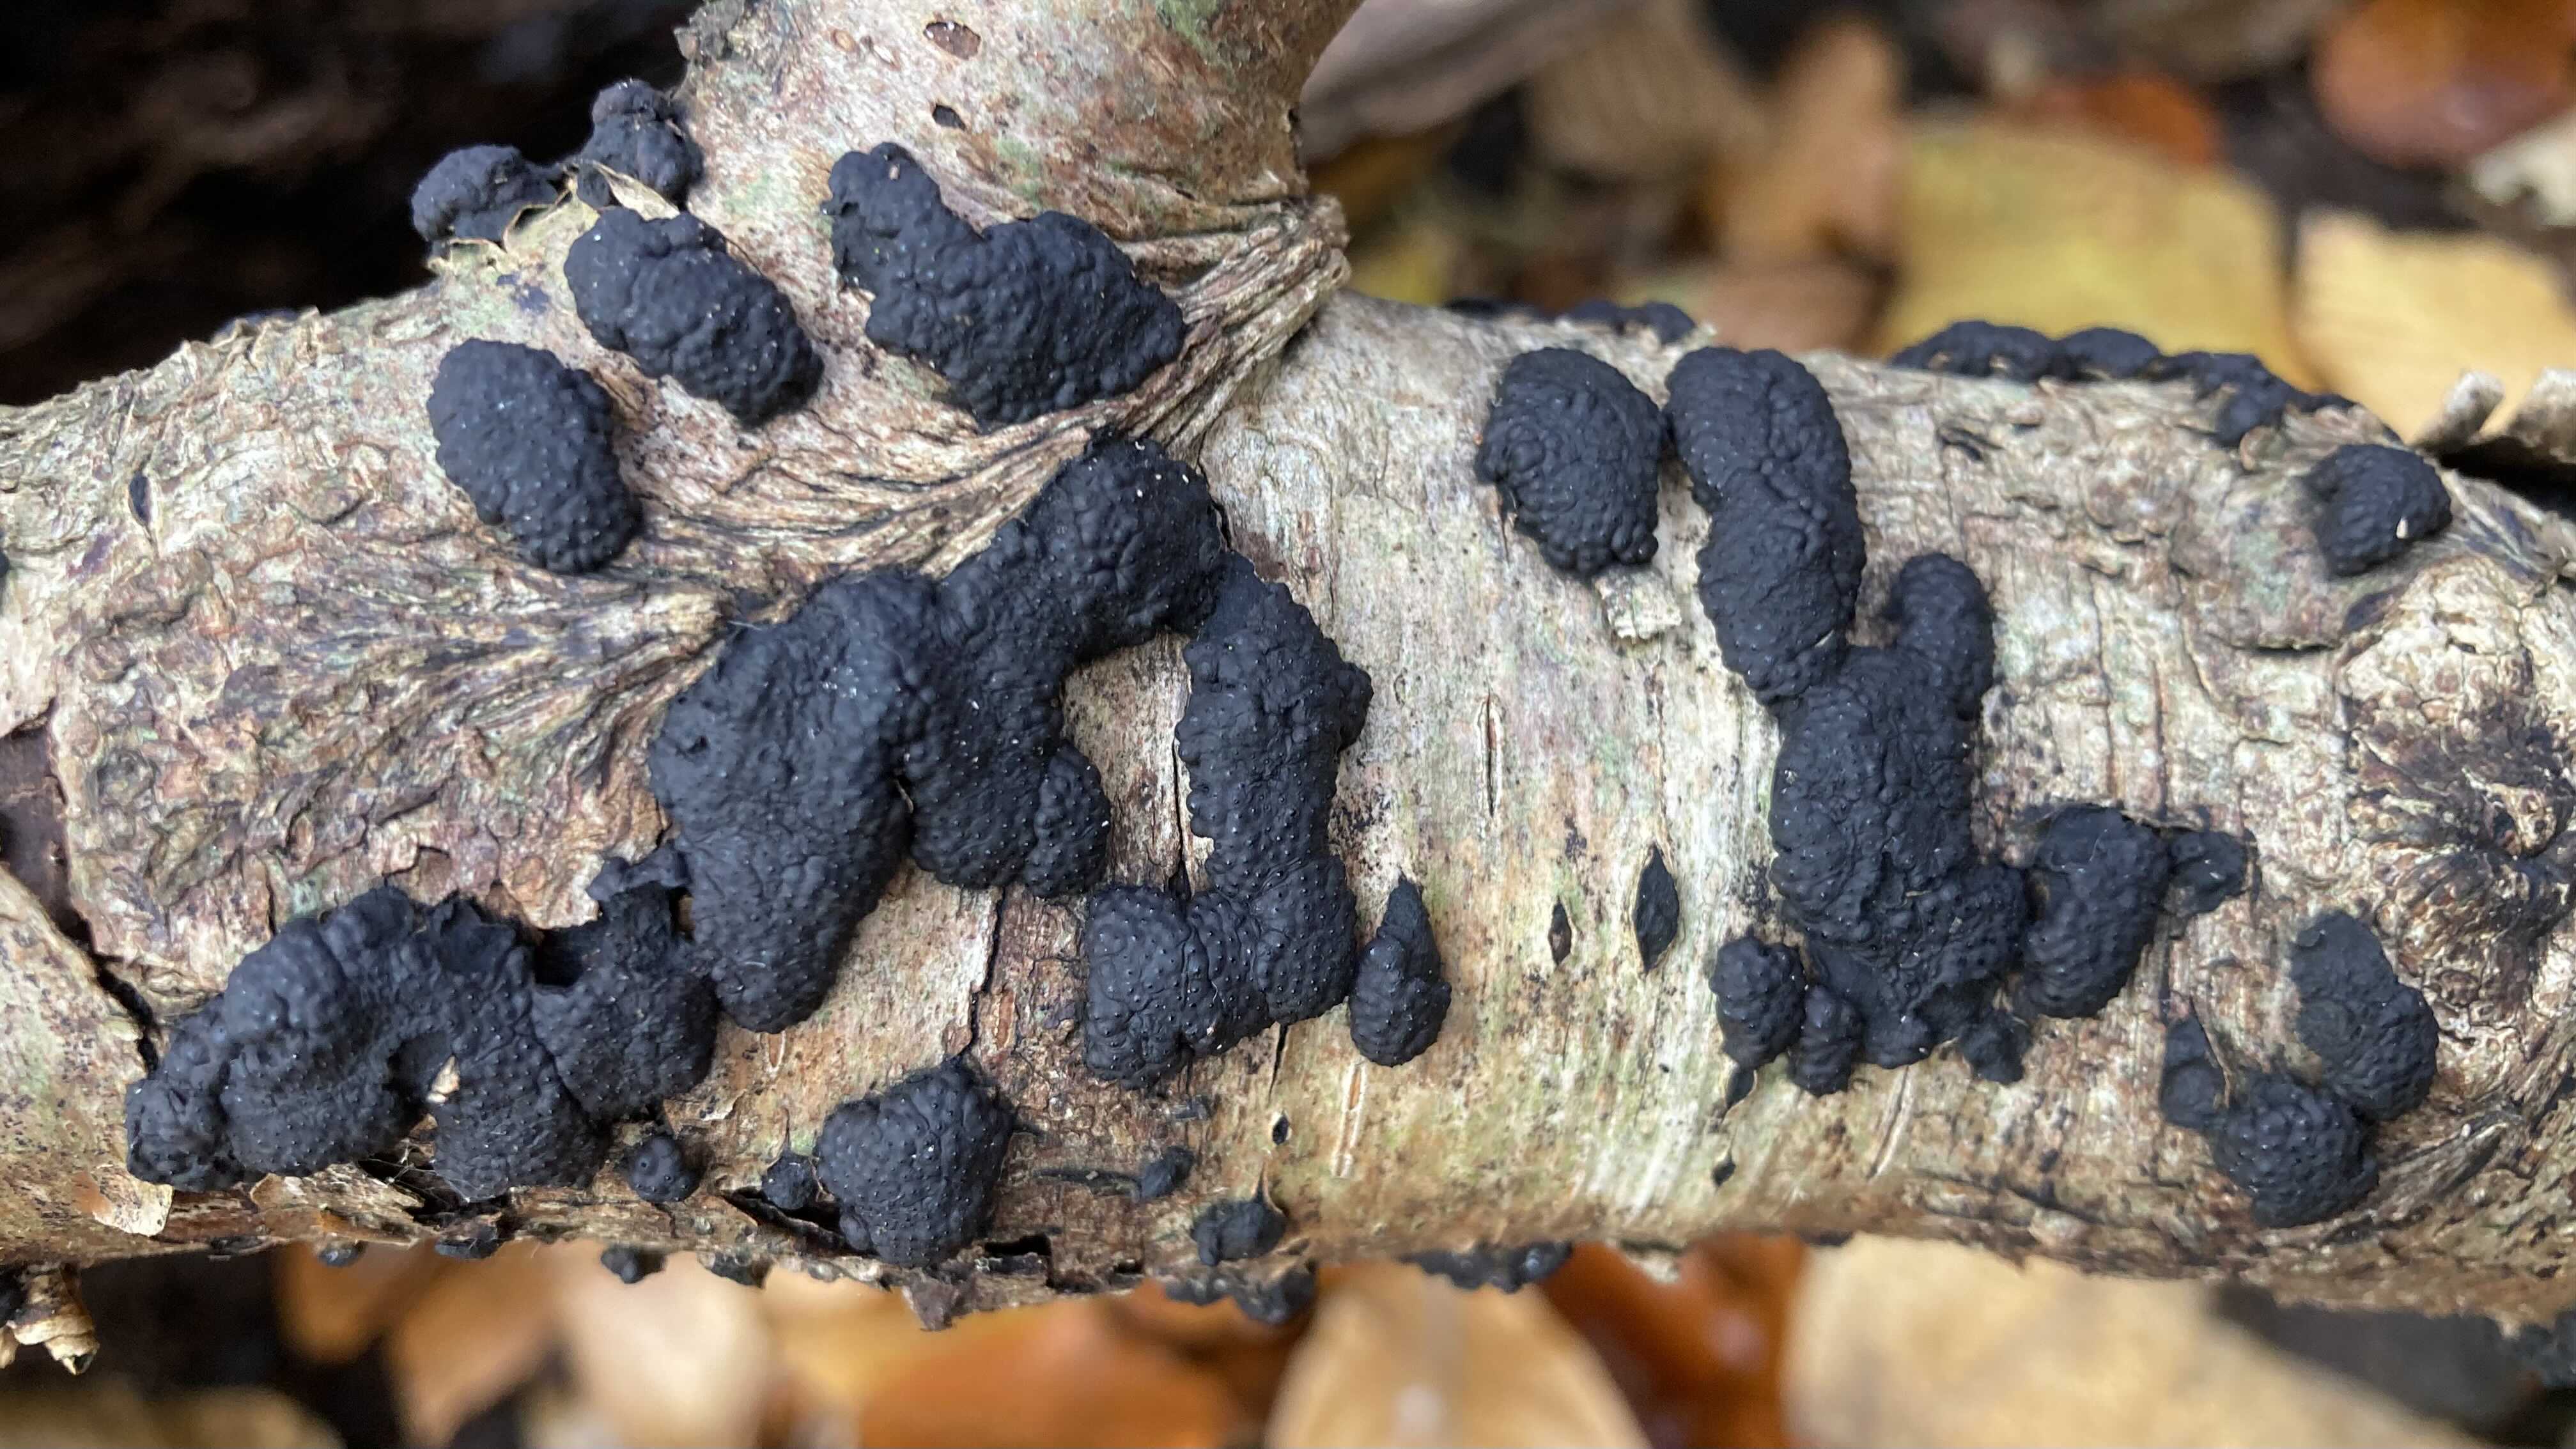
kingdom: Fungi
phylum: Ascomycota
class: Sordariomycetes
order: Xylariales
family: Hypoxylaceae
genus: Jackrogersella
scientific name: Jackrogersella multiformis
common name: foranderlig kulbær
